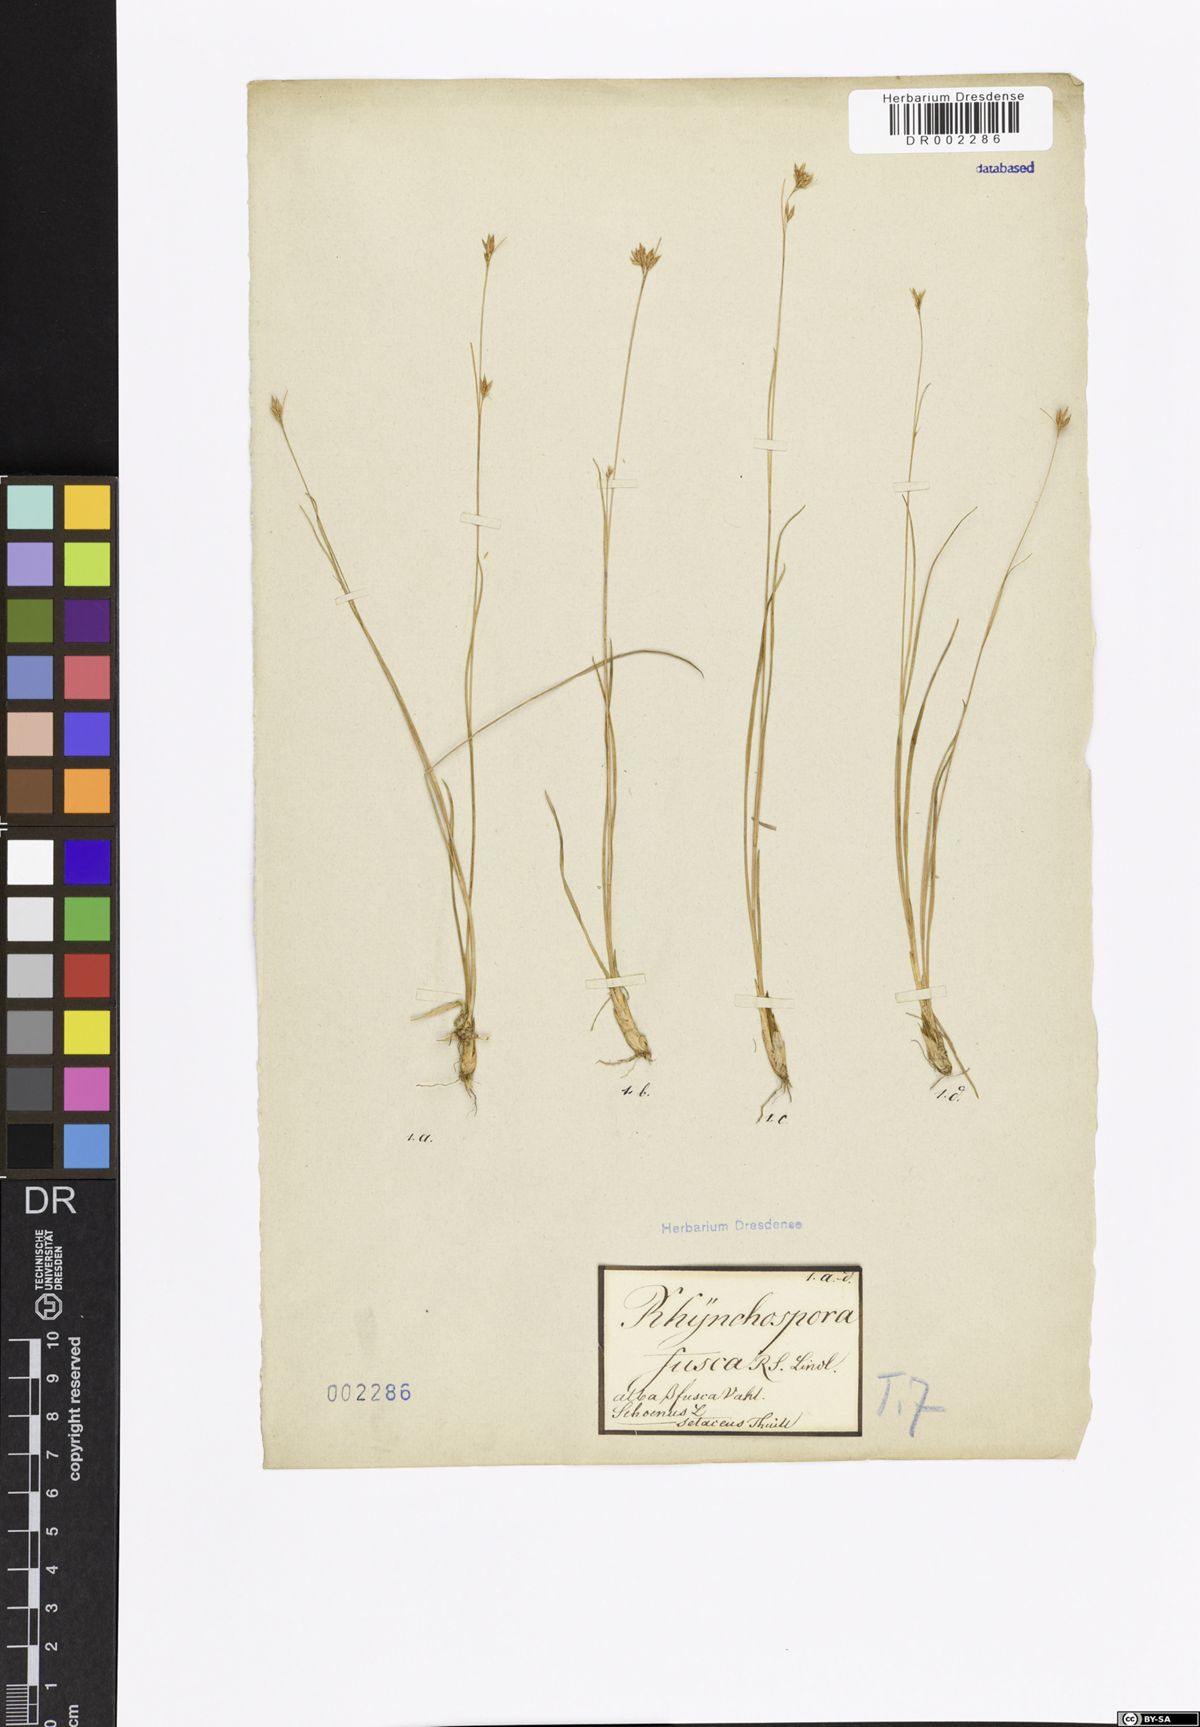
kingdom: Plantae
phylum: Tracheophyta
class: Liliopsida
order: Poales
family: Cyperaceae
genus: Rhynchospora
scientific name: Rhynchospora alba
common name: White beak-sedge
